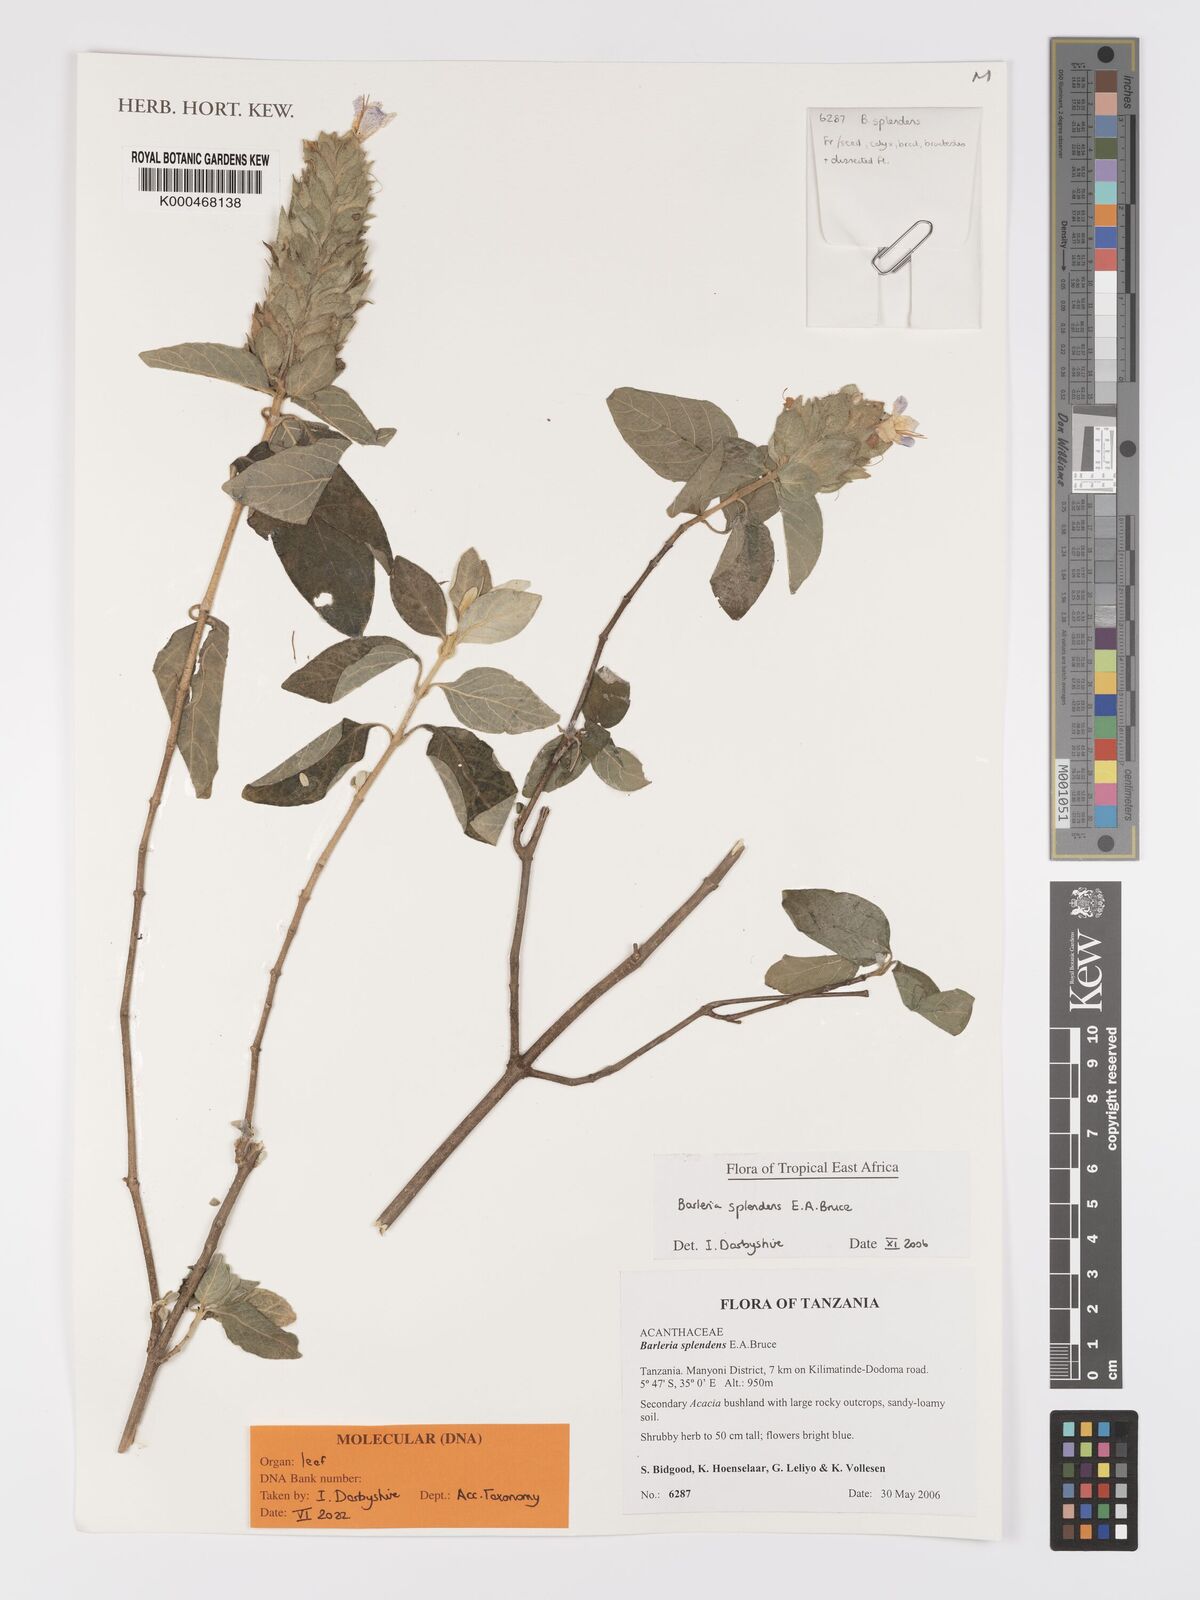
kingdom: Plantae
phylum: Tracheophyta
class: Magnoliopsida
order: Lamiales
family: Acanthaceae
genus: Barleria
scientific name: Barleria splendens
